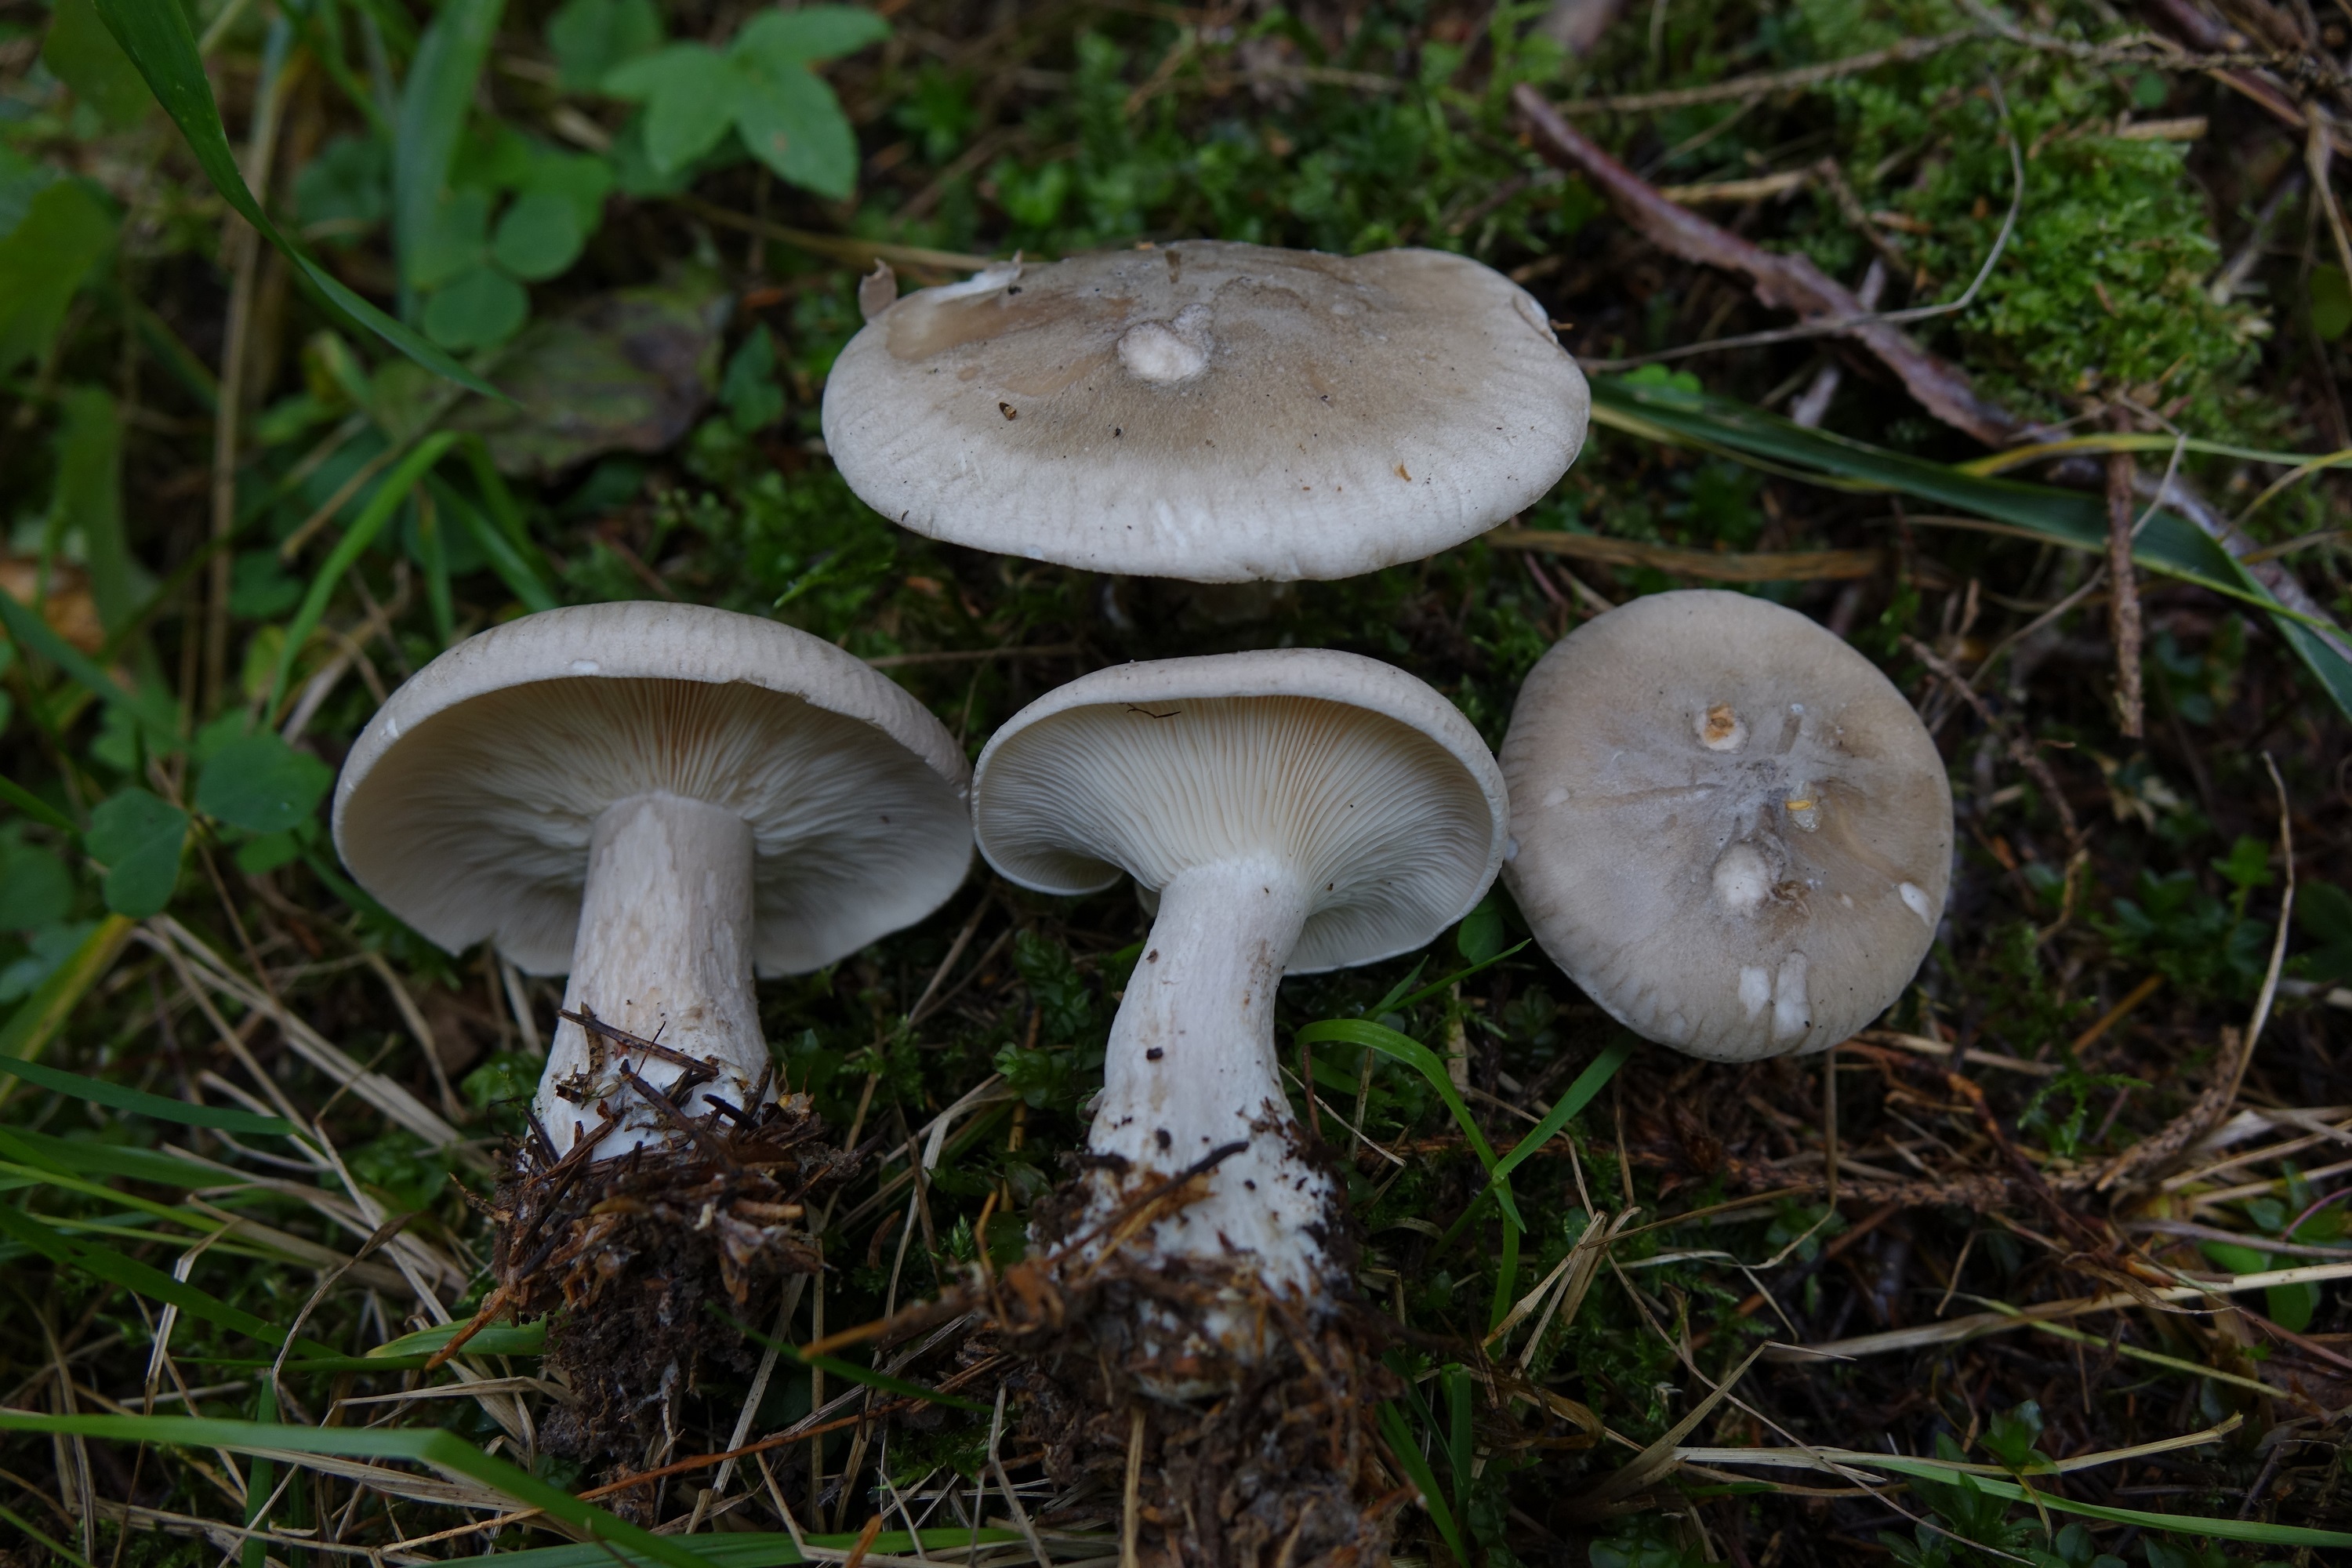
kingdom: Fungi
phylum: Basidiomycota
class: Agaricomycetes
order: Agaricales
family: Tricholomataceae
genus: Clitocybe
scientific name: Clitocybe nebularis
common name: Clouded agaric
